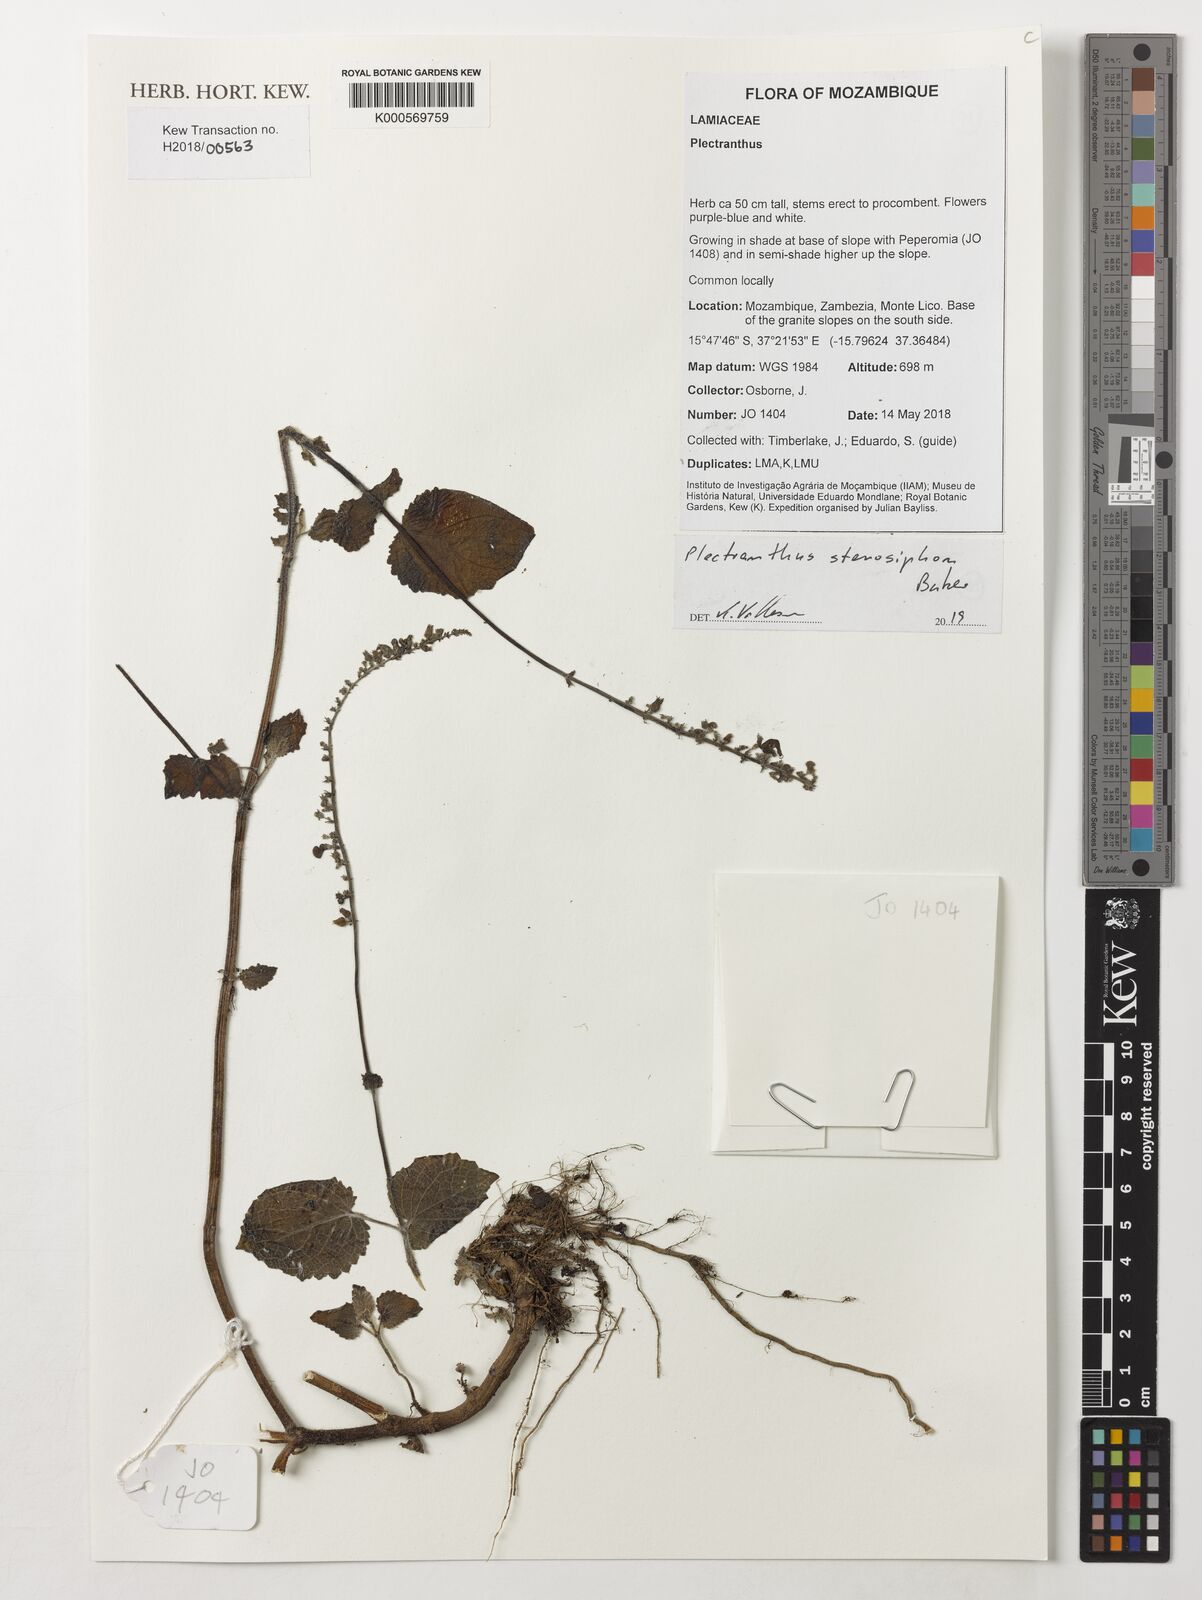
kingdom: Plantae
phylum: Tracheophyta
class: Magnoliopsida
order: Lamiales
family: Lamiaceae
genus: Equilabium
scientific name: Equilabium stenosiphon
